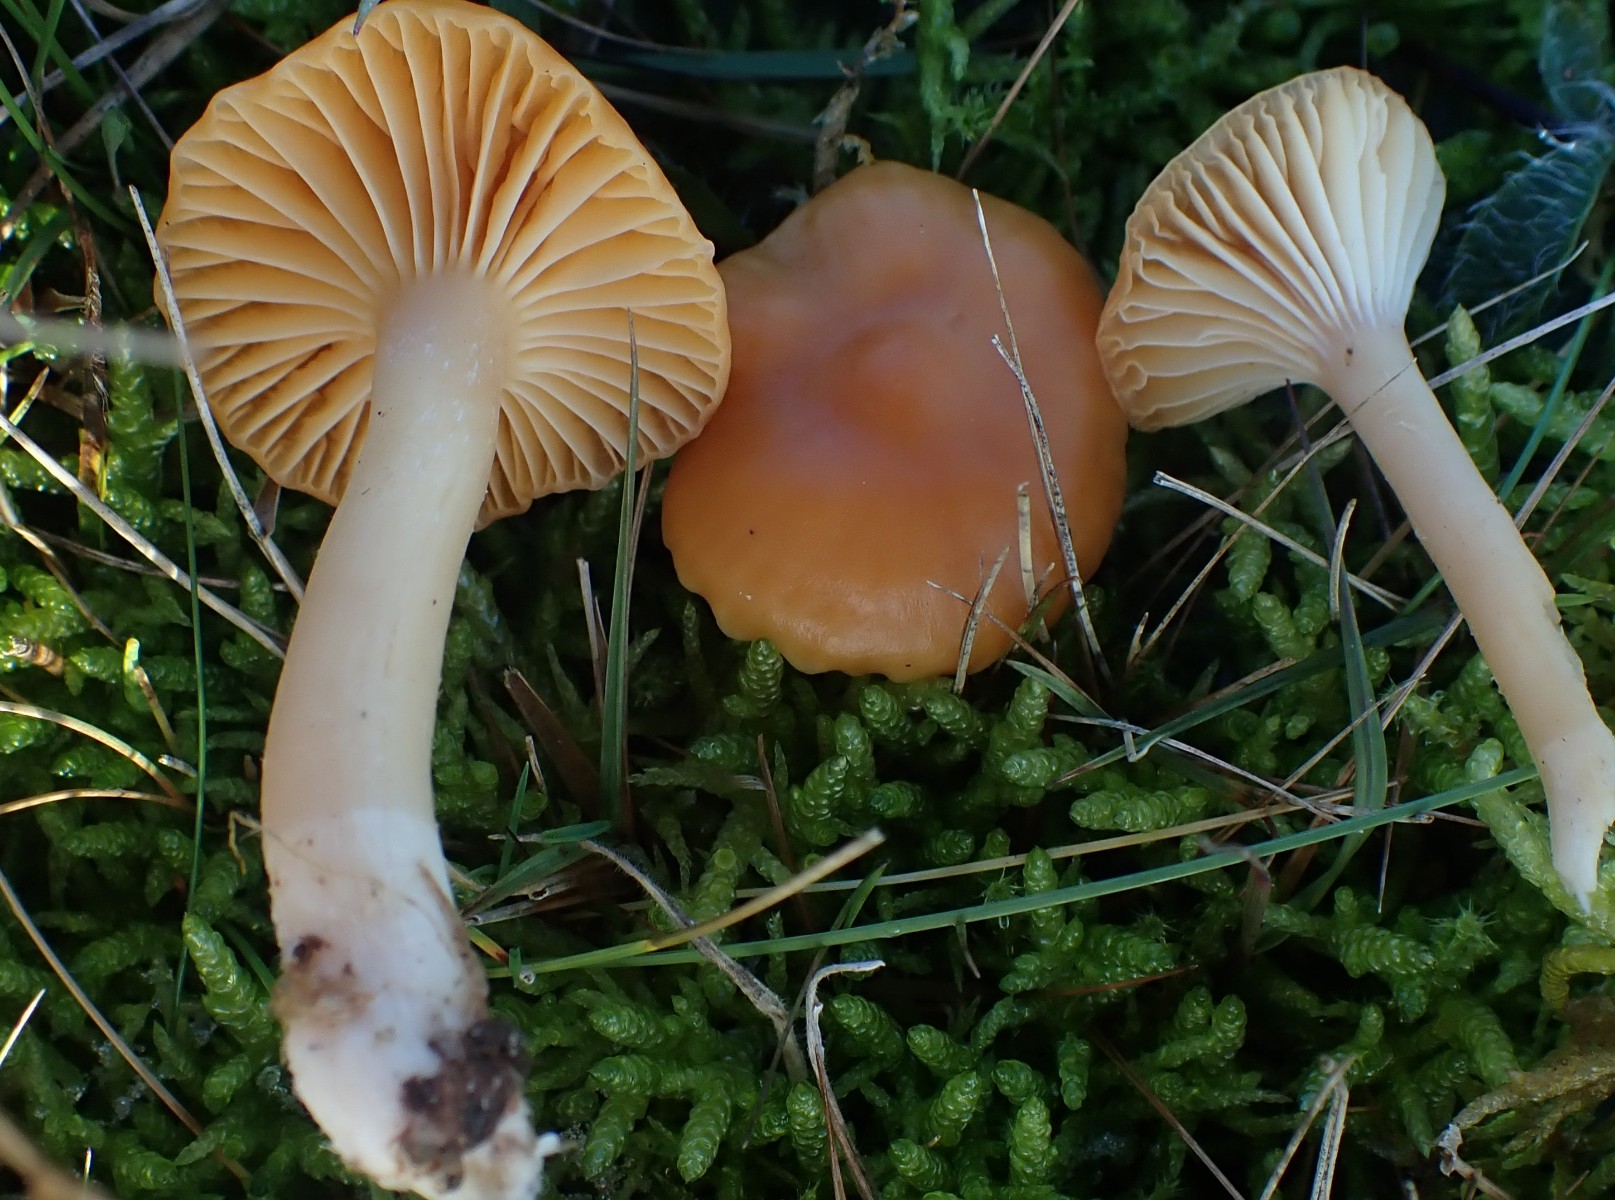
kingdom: Fungi
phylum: Basidiomycota
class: Agaricomycetes
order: Agaricales
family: Hygrophoraceae
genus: Cuphophyllus
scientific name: Cuphophyllus pratensis
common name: eng-vokshat
